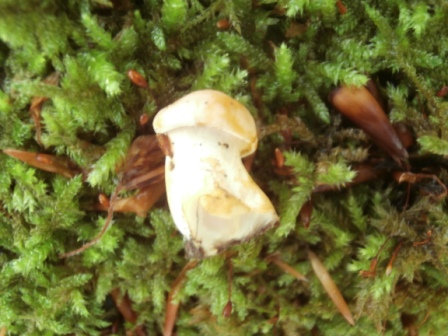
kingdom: Fungi
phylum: Basidiomycota
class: Agaricomycetes
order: Cantharellales
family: Hydnaceae
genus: Cantharellus
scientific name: Cantharellus pallens
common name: bleg kantarel
